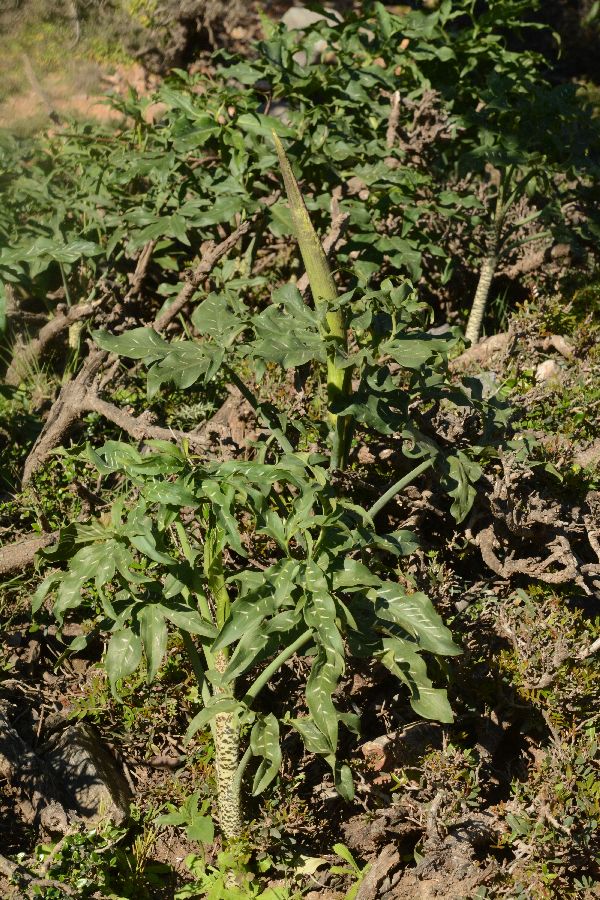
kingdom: Plantae
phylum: Tracheophyta
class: Liliopsida
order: Alismatales
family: Araceae
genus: Dracunculus
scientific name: Dracunculus vulgaris
